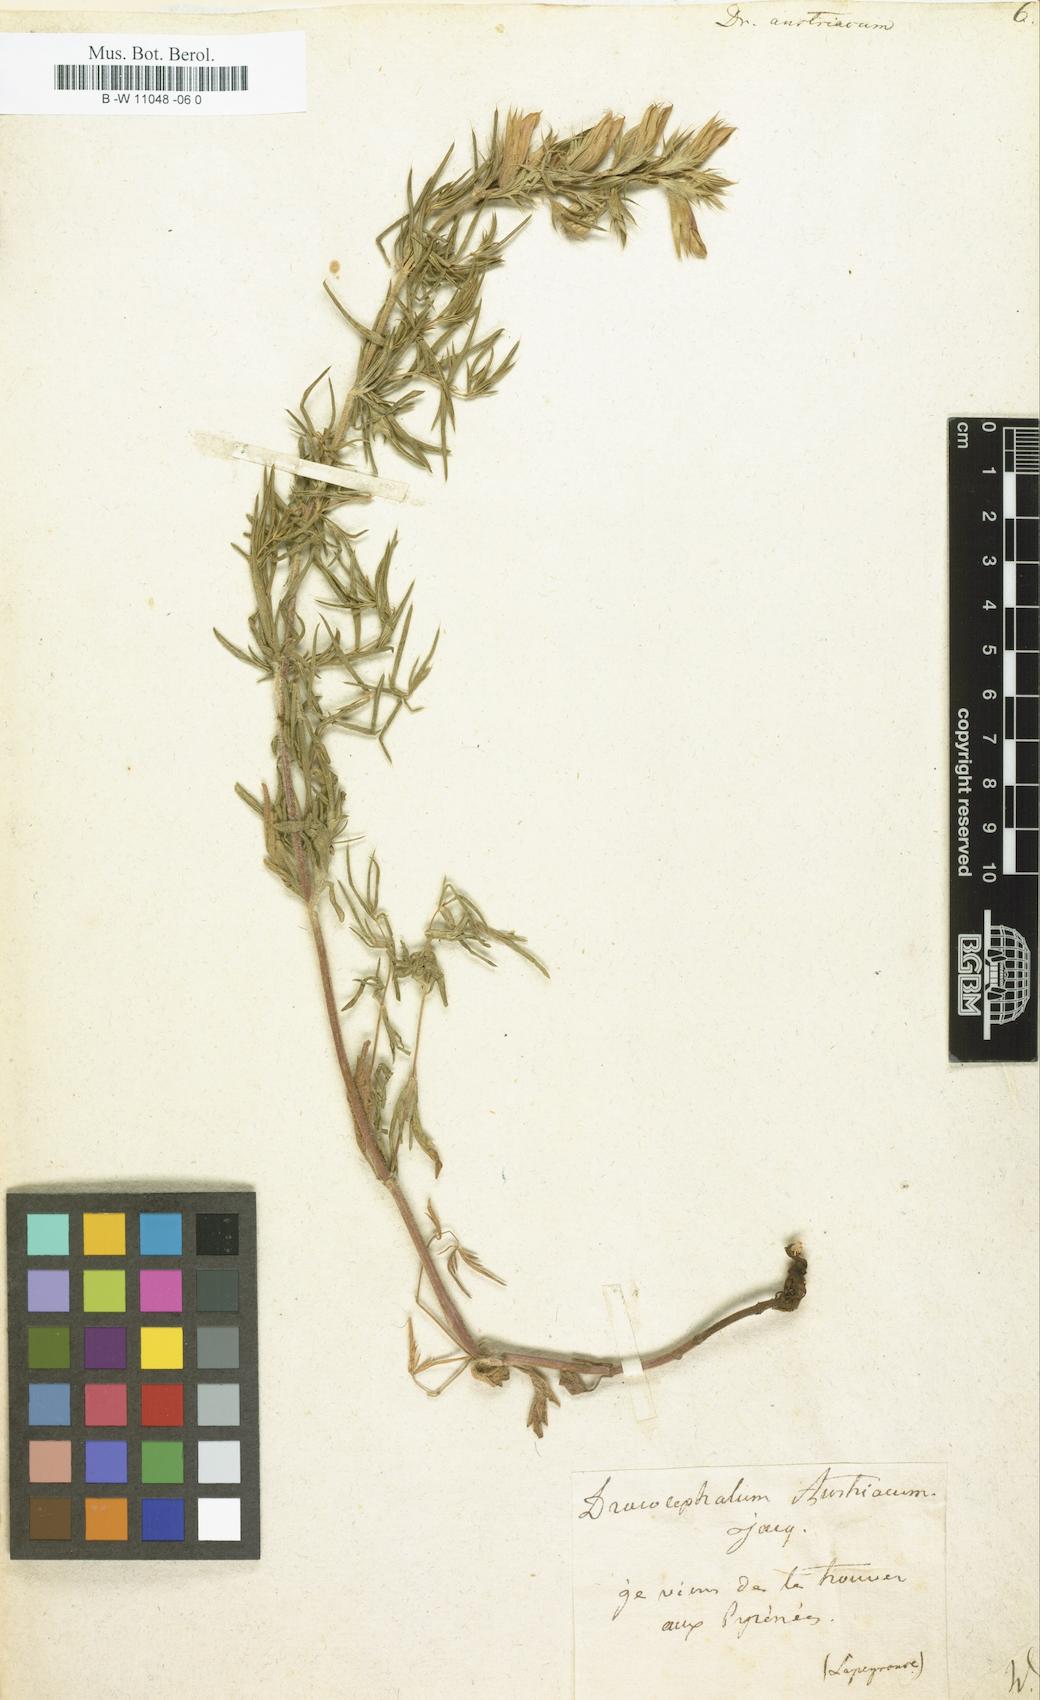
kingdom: Plantae
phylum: Tracheophyta
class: Magnoliopsida
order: Lamiales
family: Lamiaceae
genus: Dracocephalum
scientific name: Dracocephalum austriacum
